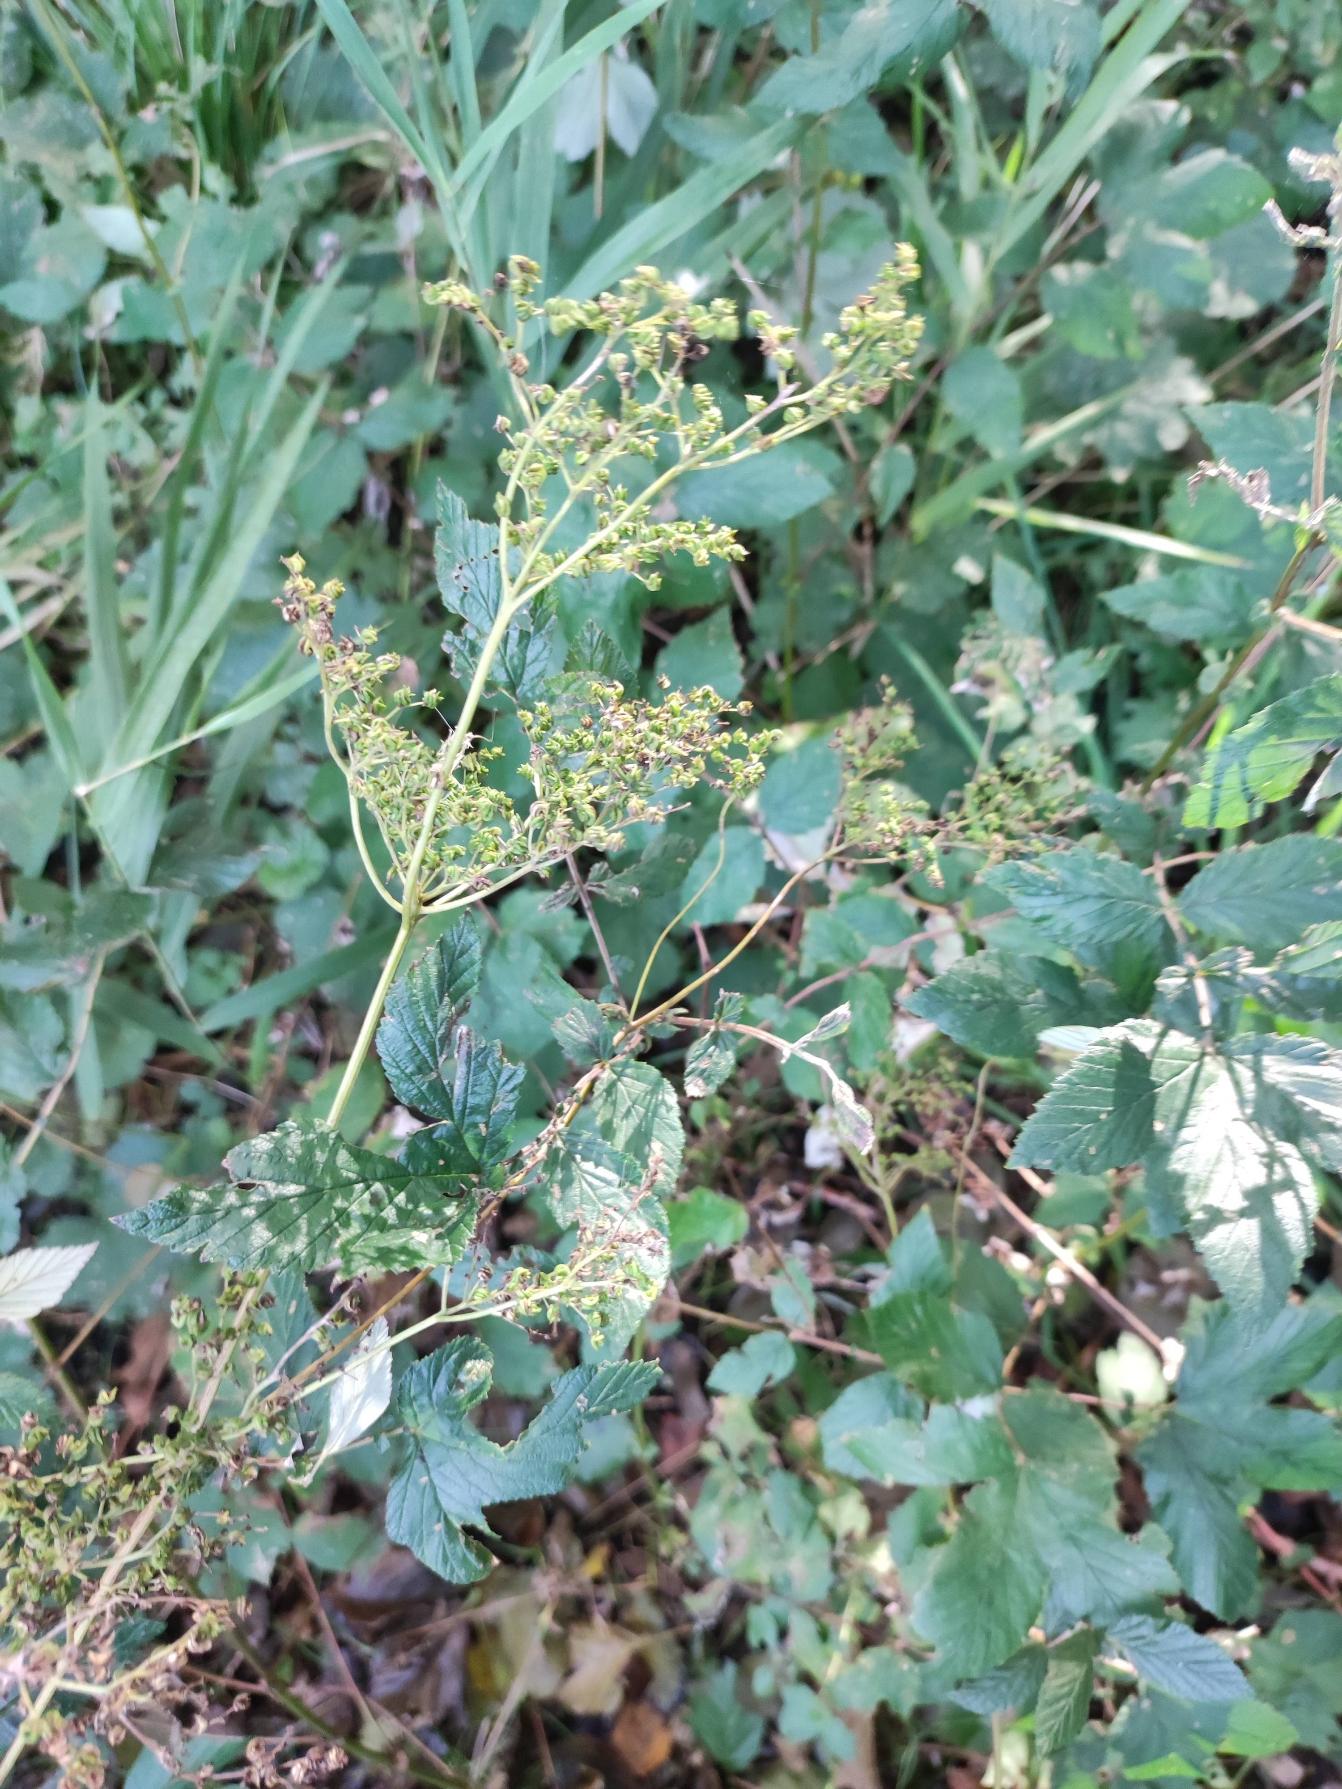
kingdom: Plantae
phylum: Tracheophyta
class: Magnoliopsida
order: Rosales
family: Rosaceae
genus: Filipendula
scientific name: Filipendula ulmaria
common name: Almindelig mjødurt
